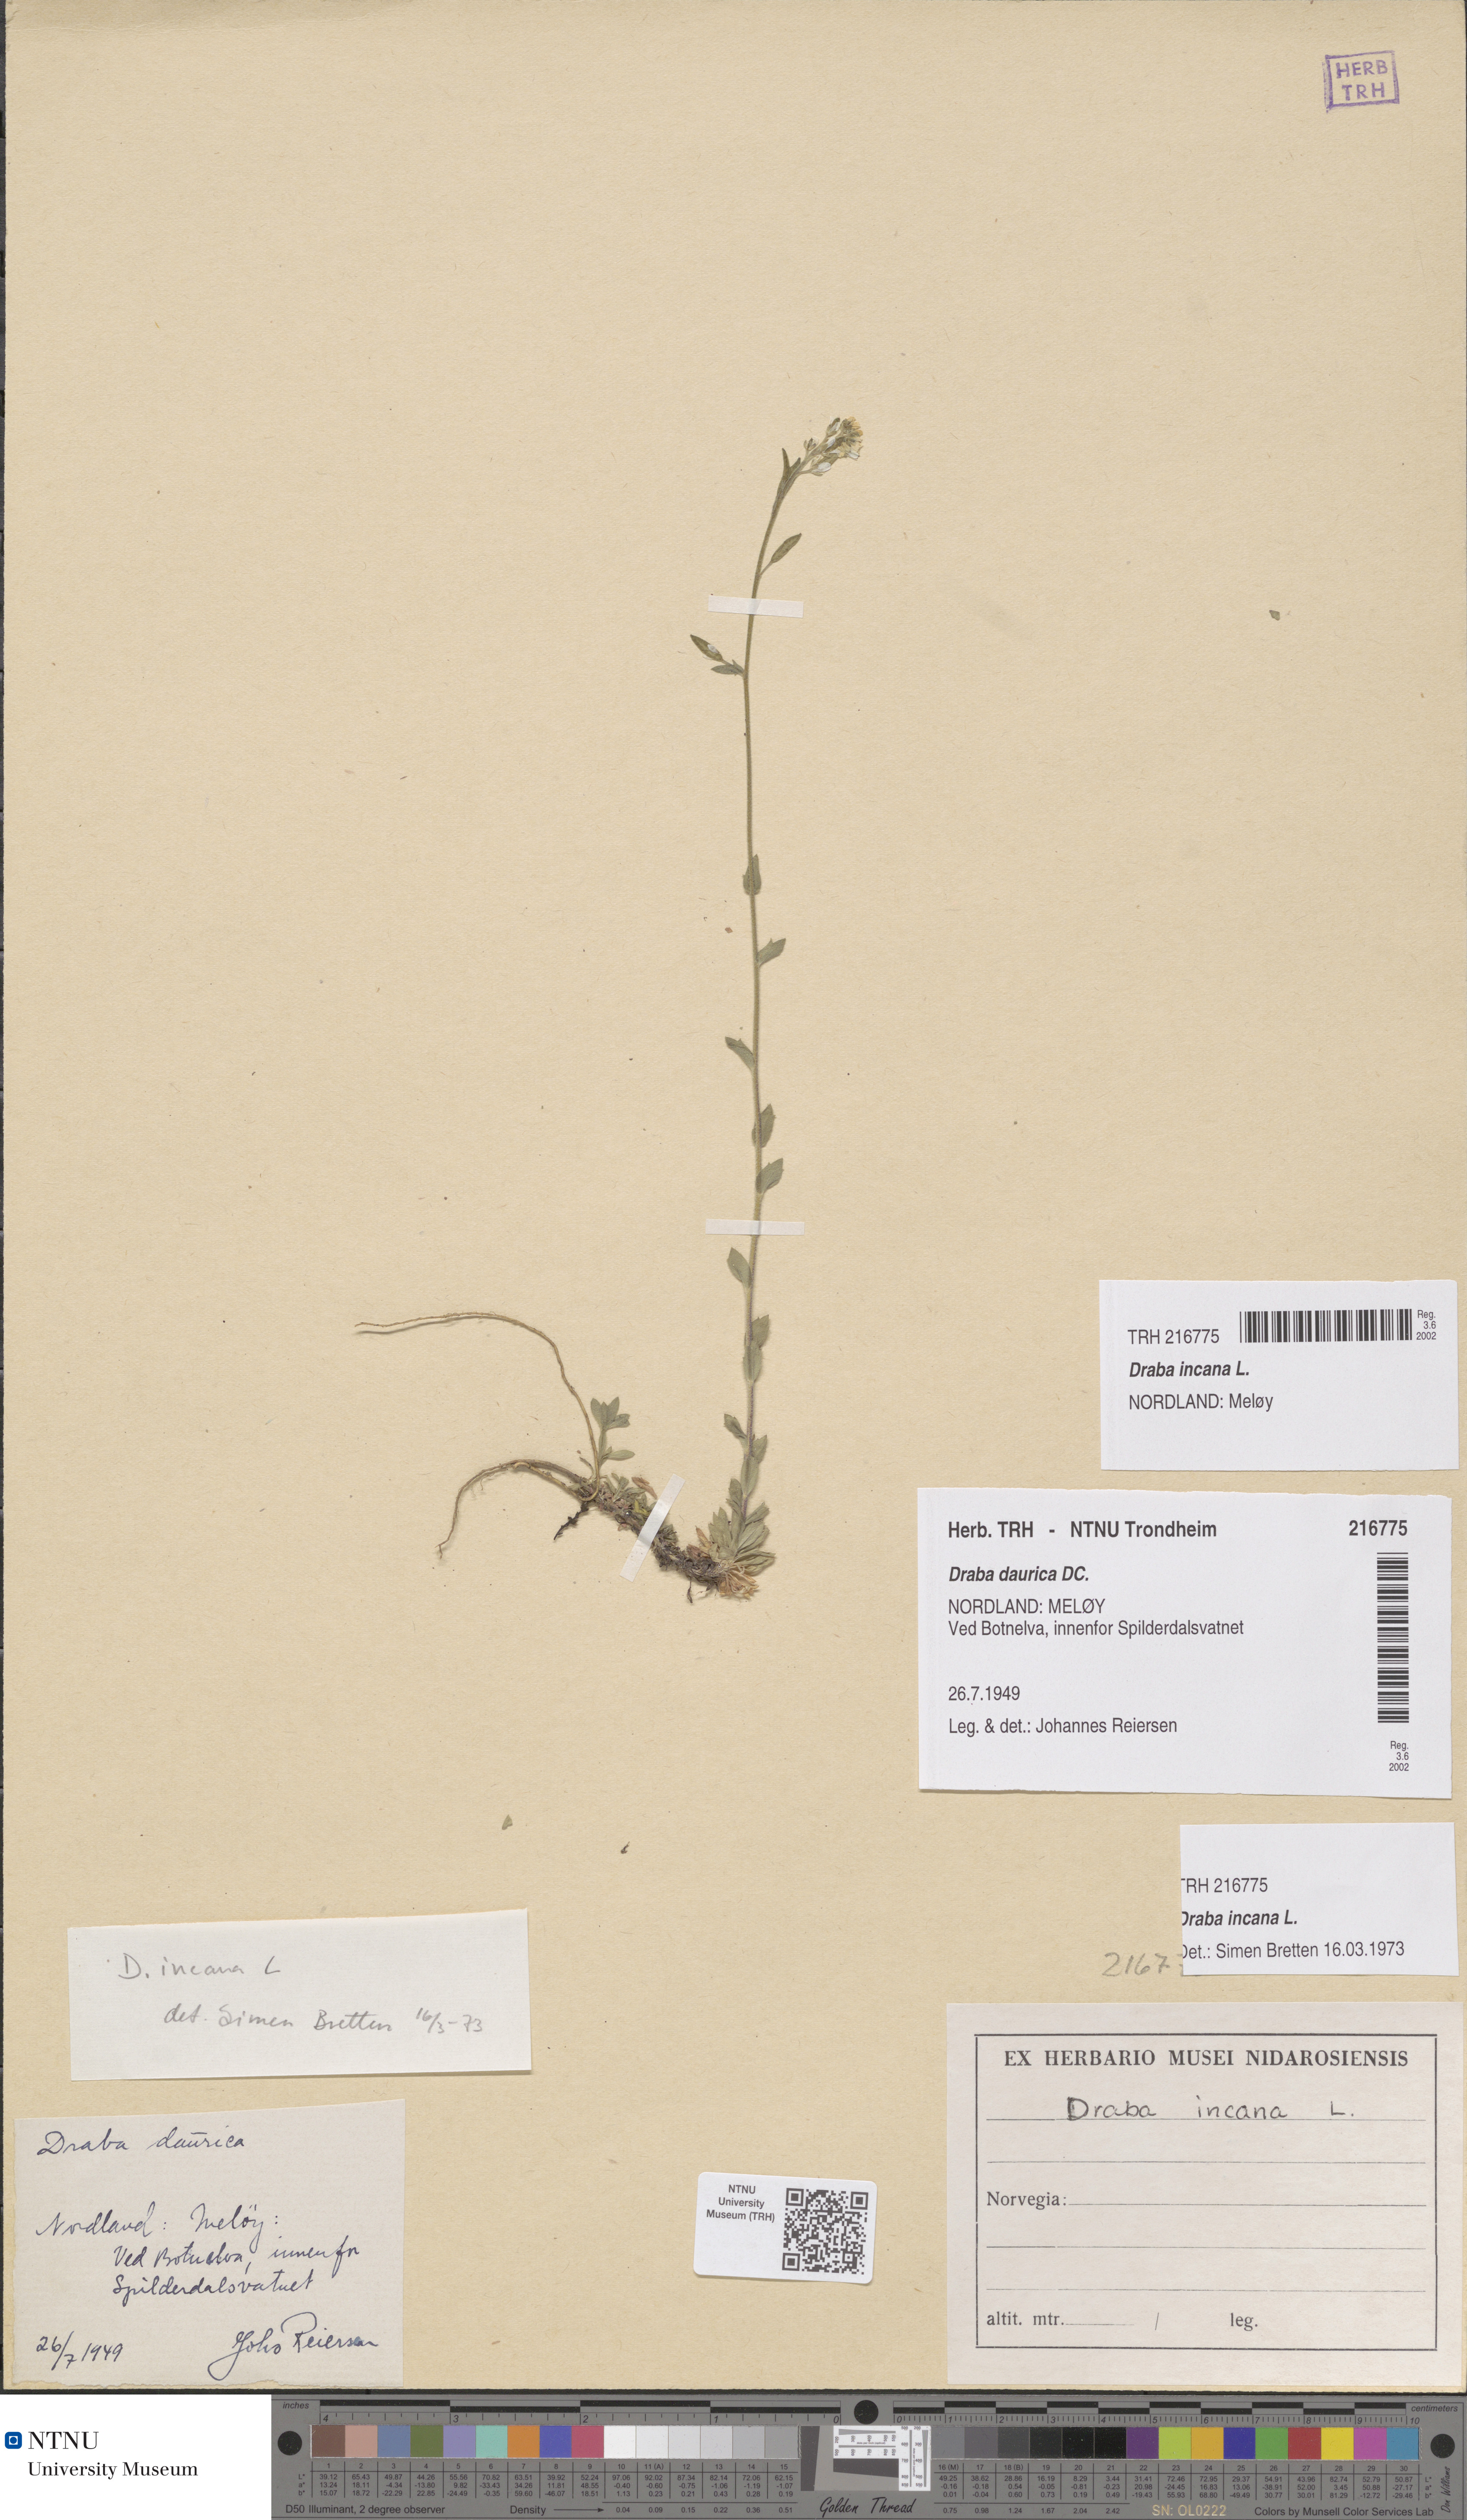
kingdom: Plantae
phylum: Tracheophyta
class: Magnoliopsida
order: Brassicales
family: Brassicaceae
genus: Draba
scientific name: Draba incana
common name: Hoary whitlow-grass
